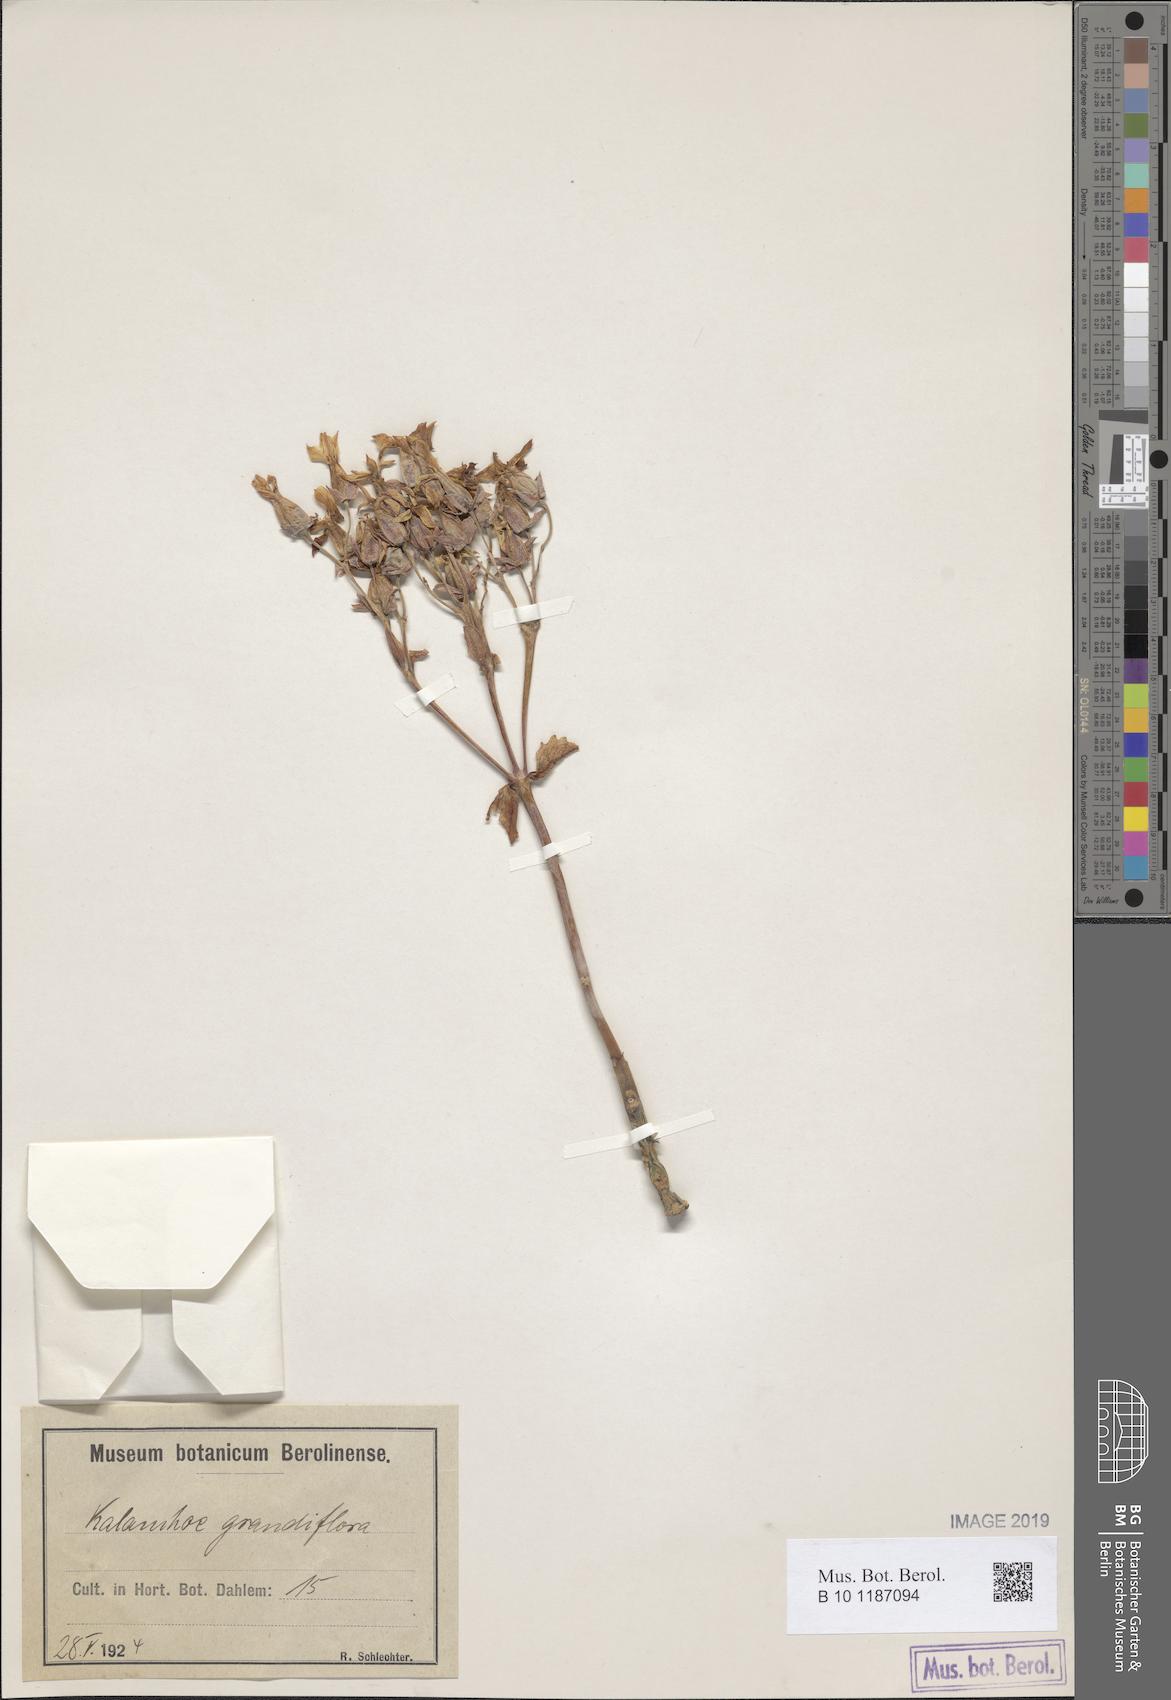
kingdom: Plantae
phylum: Tracheophyta
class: Magnoliopsida
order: Saxifragales
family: Crassulaceae
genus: Kalanchoe
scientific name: Kalanchoe grandiflora
